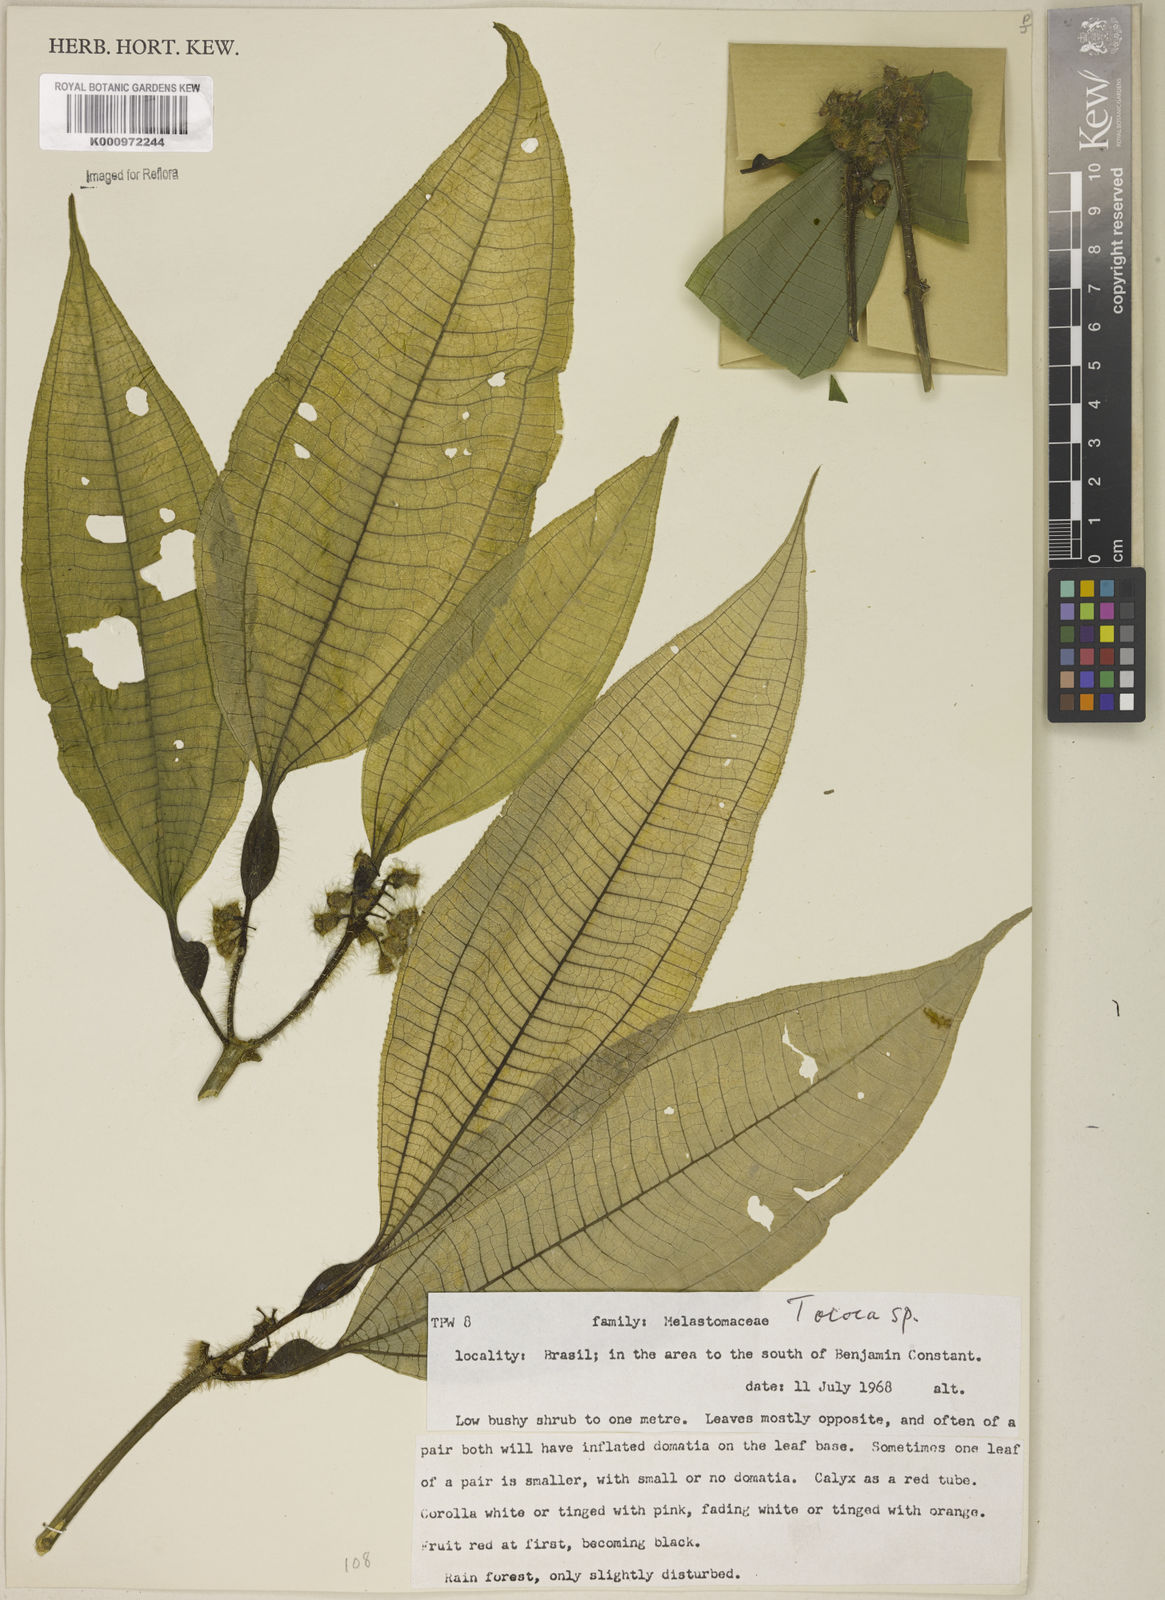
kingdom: Plantae
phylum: Tracheophyta
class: Magnoliopsida
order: Myrtales
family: Melastomataceae
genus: Miconia
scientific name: Miconia
